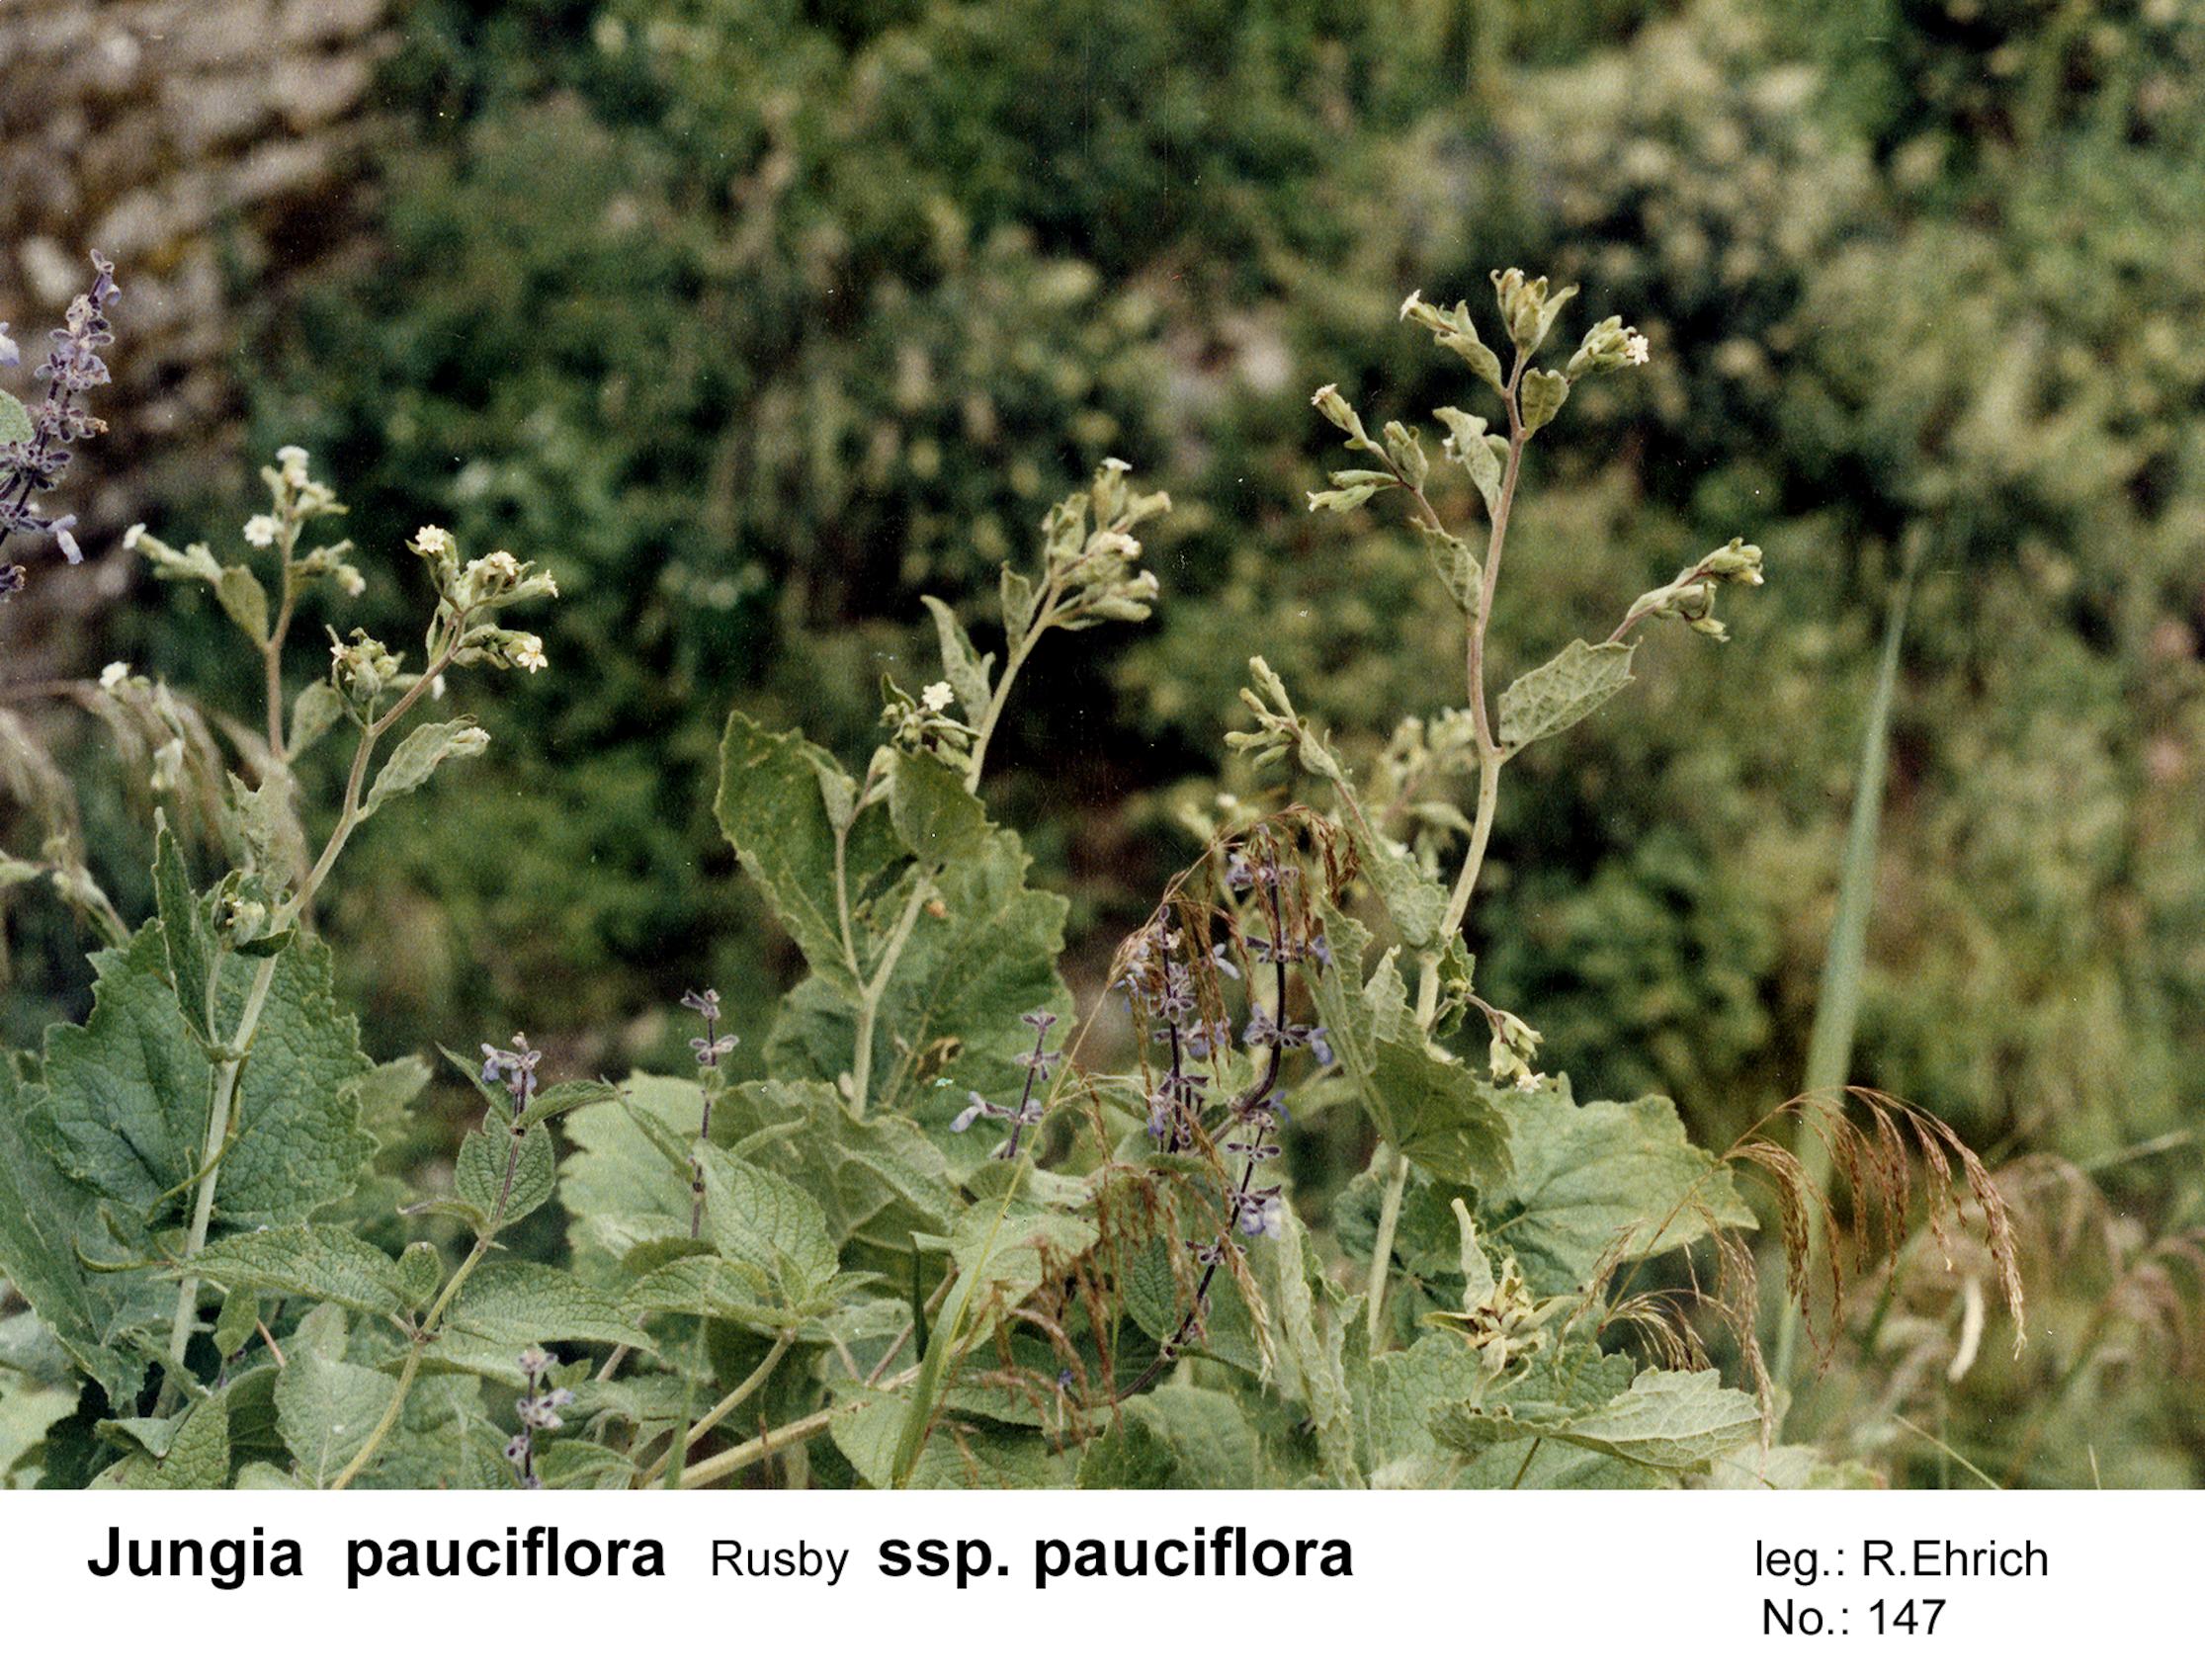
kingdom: Plantae
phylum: Tracheophyta
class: Magnoliopsida
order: Asterales
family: Asteraceae
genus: Jungia
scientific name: Jungia pauciflora
